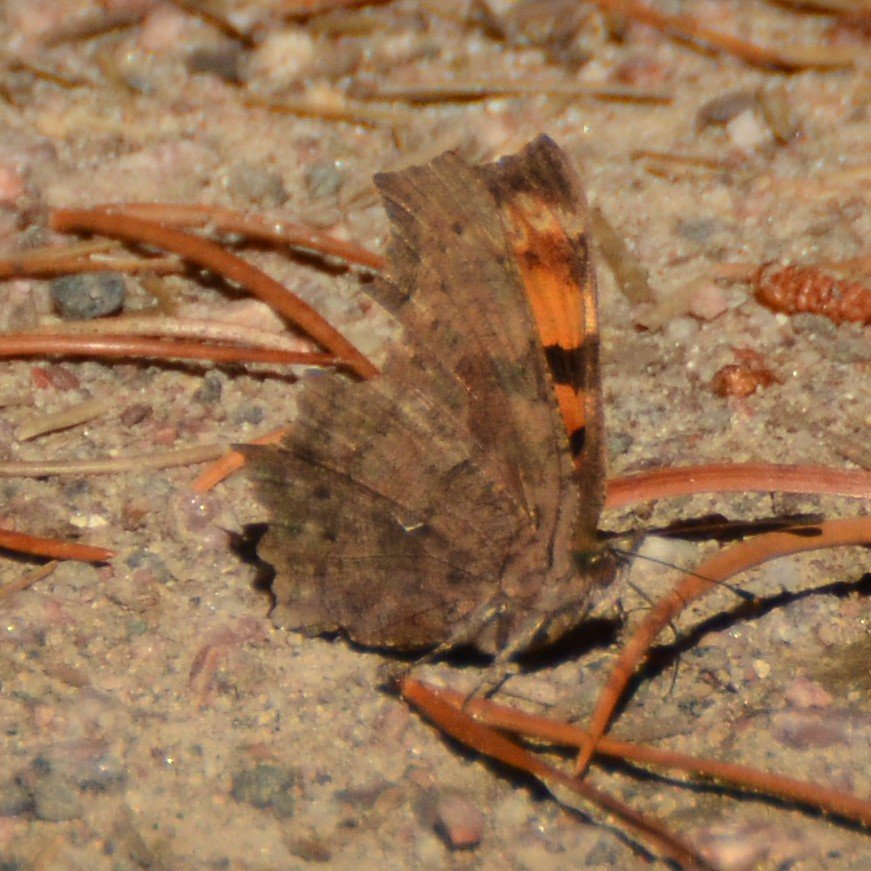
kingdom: Animalia
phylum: Arthropoda
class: Insecta
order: Lepidoptera
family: Nymphalidae
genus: Polygonia
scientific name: Polygonia faunus
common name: Green Comma
